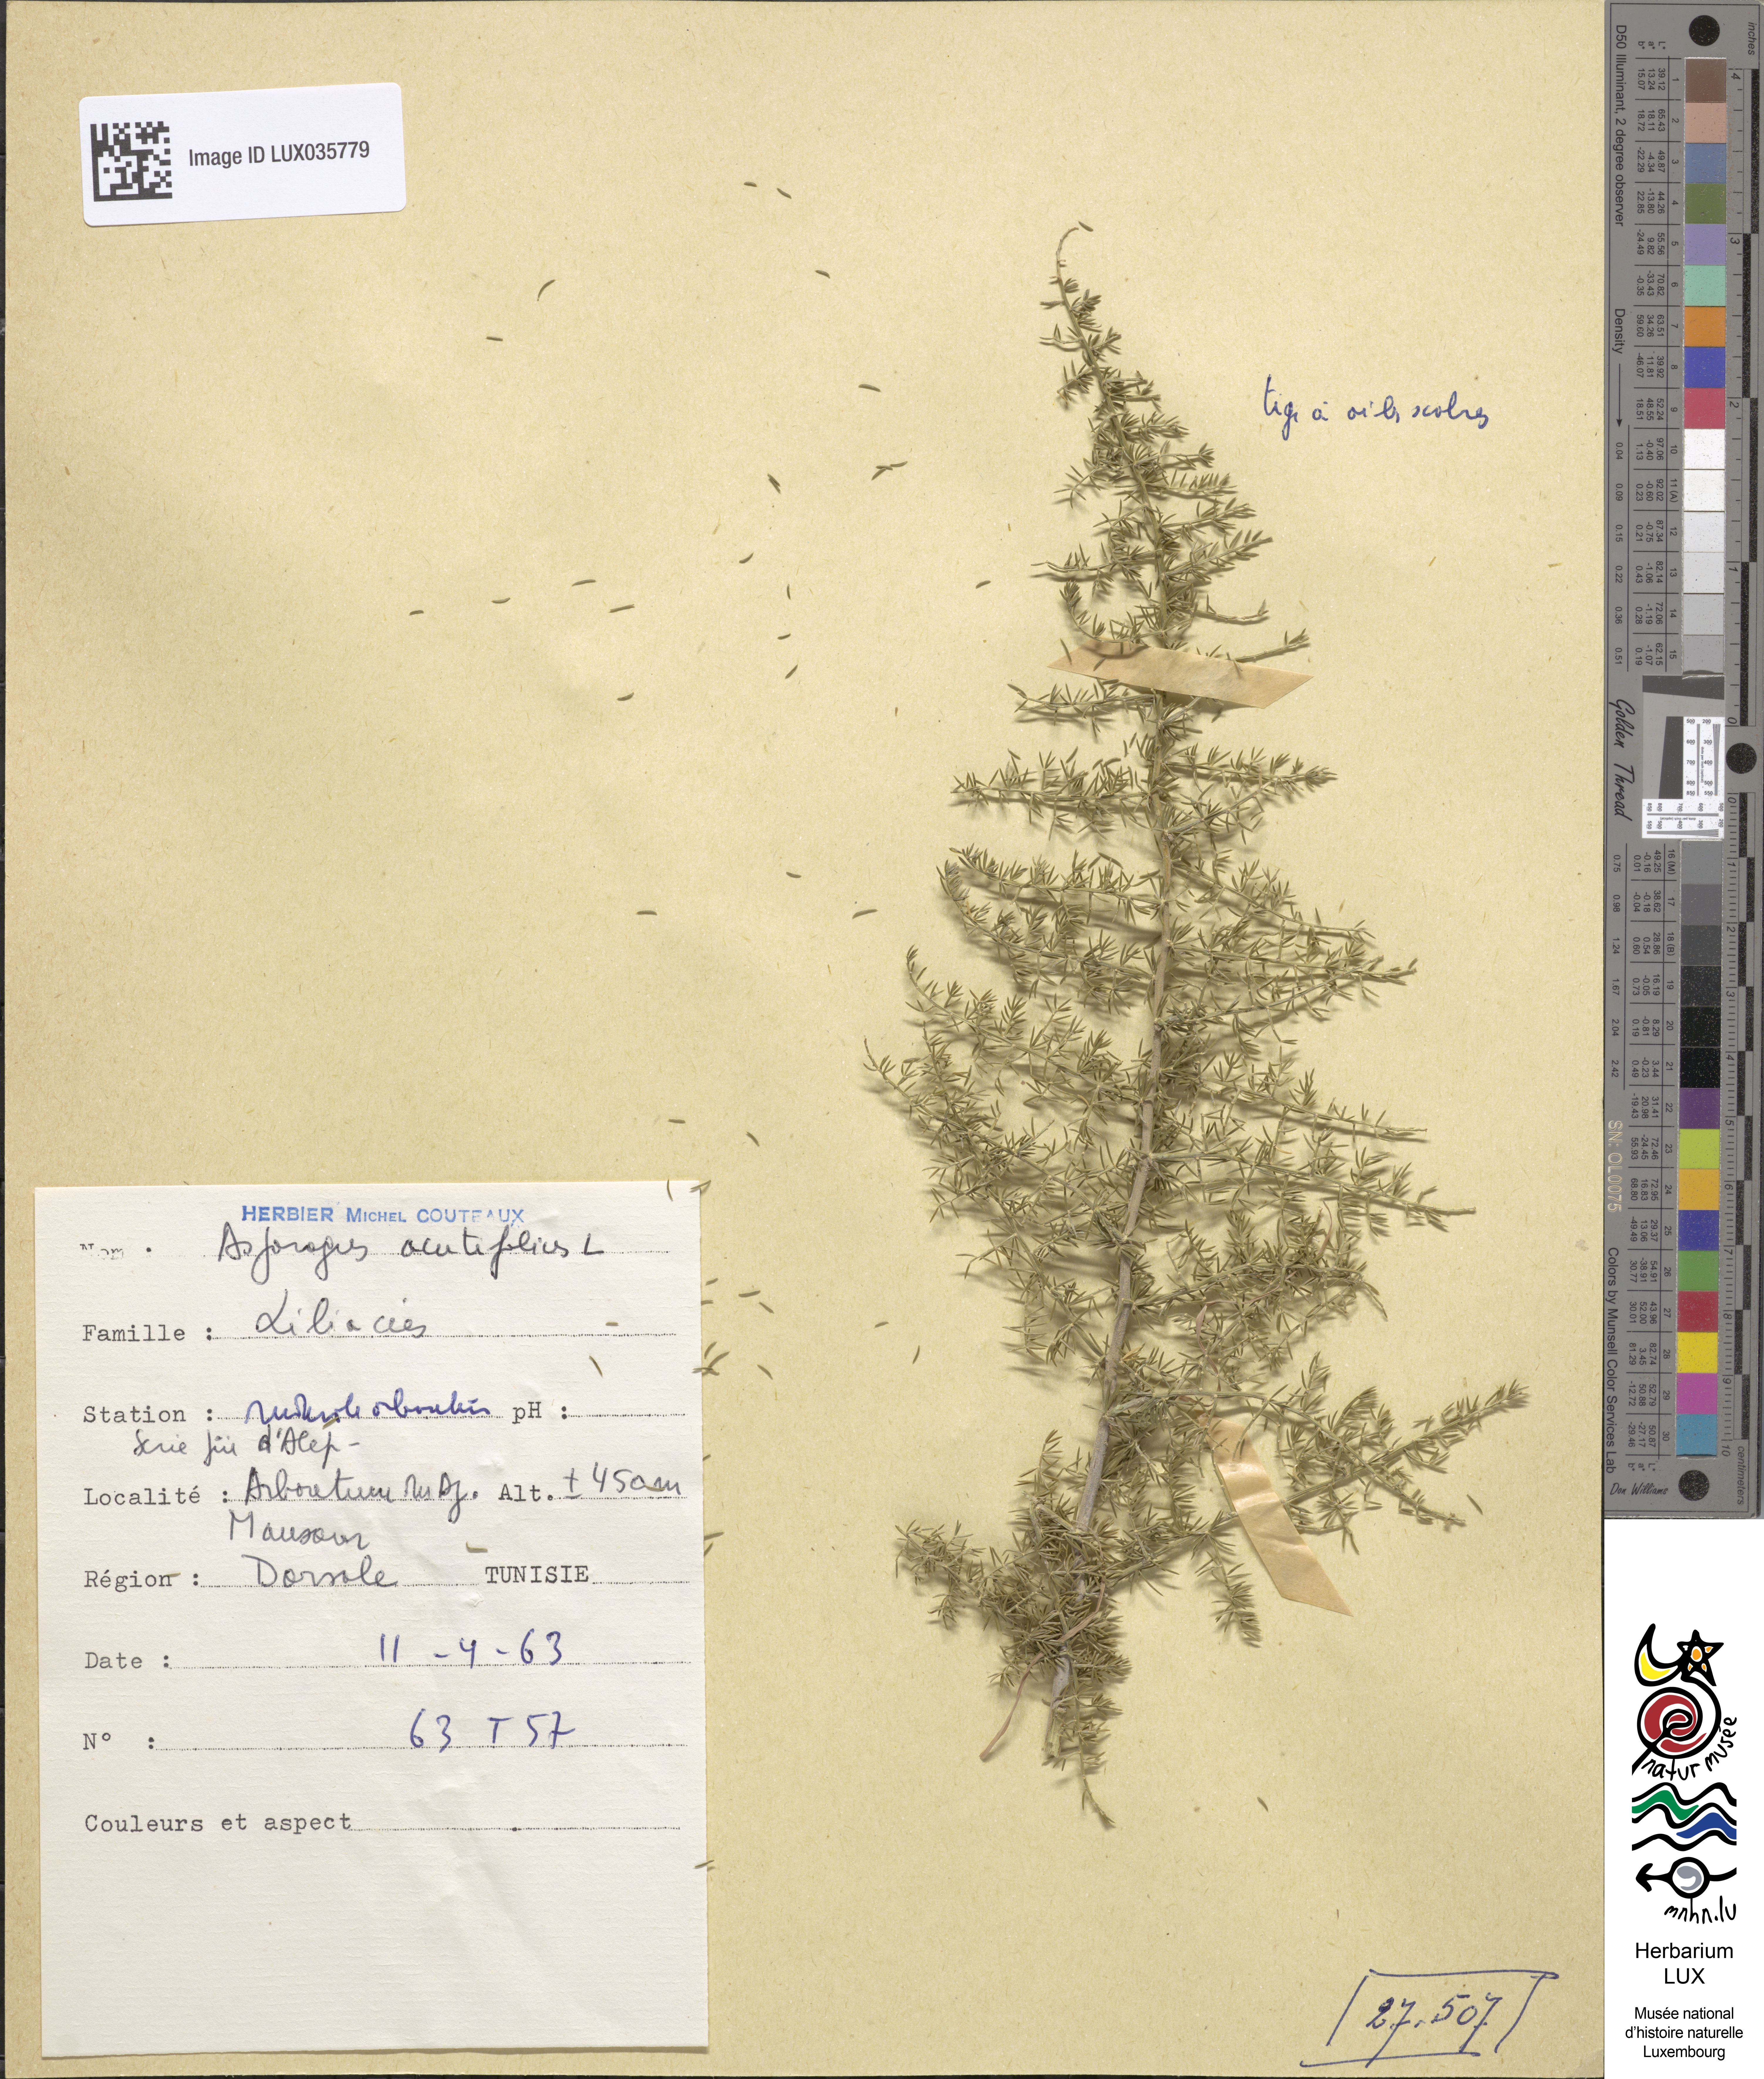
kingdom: Plantae
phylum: Tracheophyta
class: Liliopsida
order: Asparagales
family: Asparagaceae
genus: Asparagus
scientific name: Asparagus acutifolius
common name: Wild asparagus
